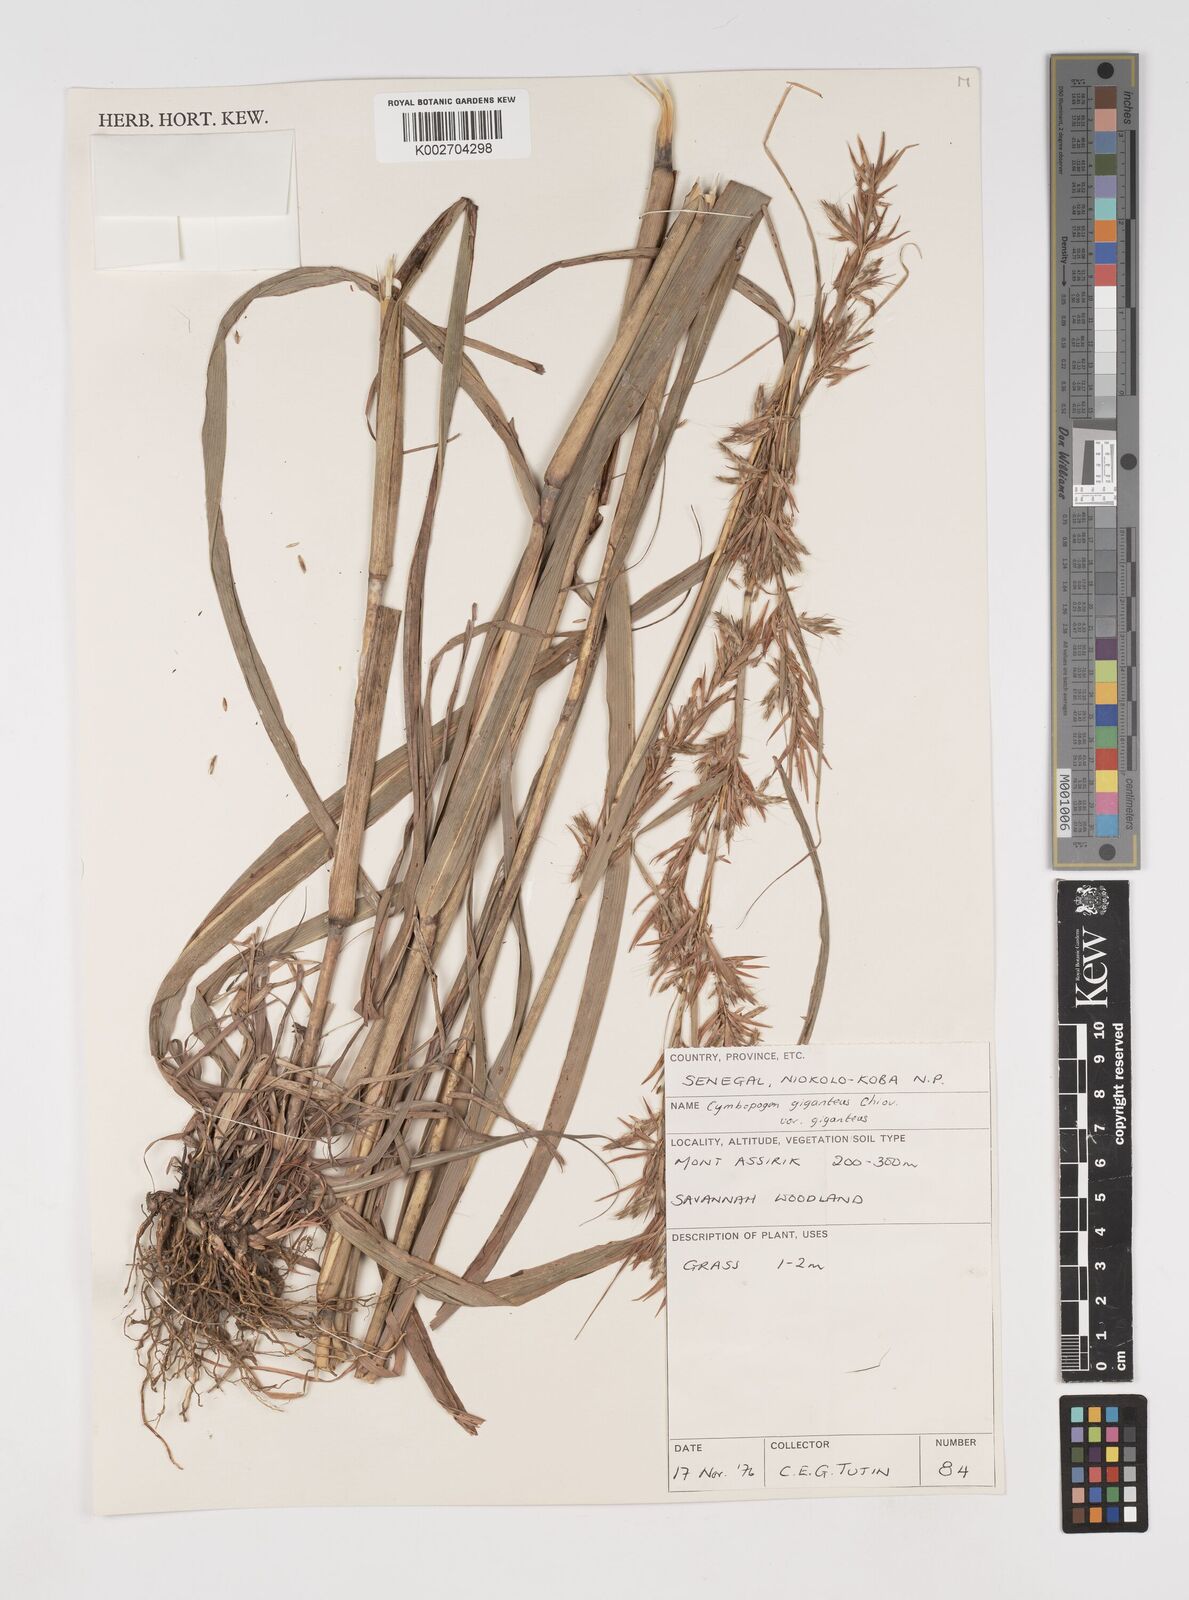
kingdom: Plantae
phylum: Tracheophyta
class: Liliopsida
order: Poales
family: Poaceae
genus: Cymbopogon
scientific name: Cymbopogon giganteus
